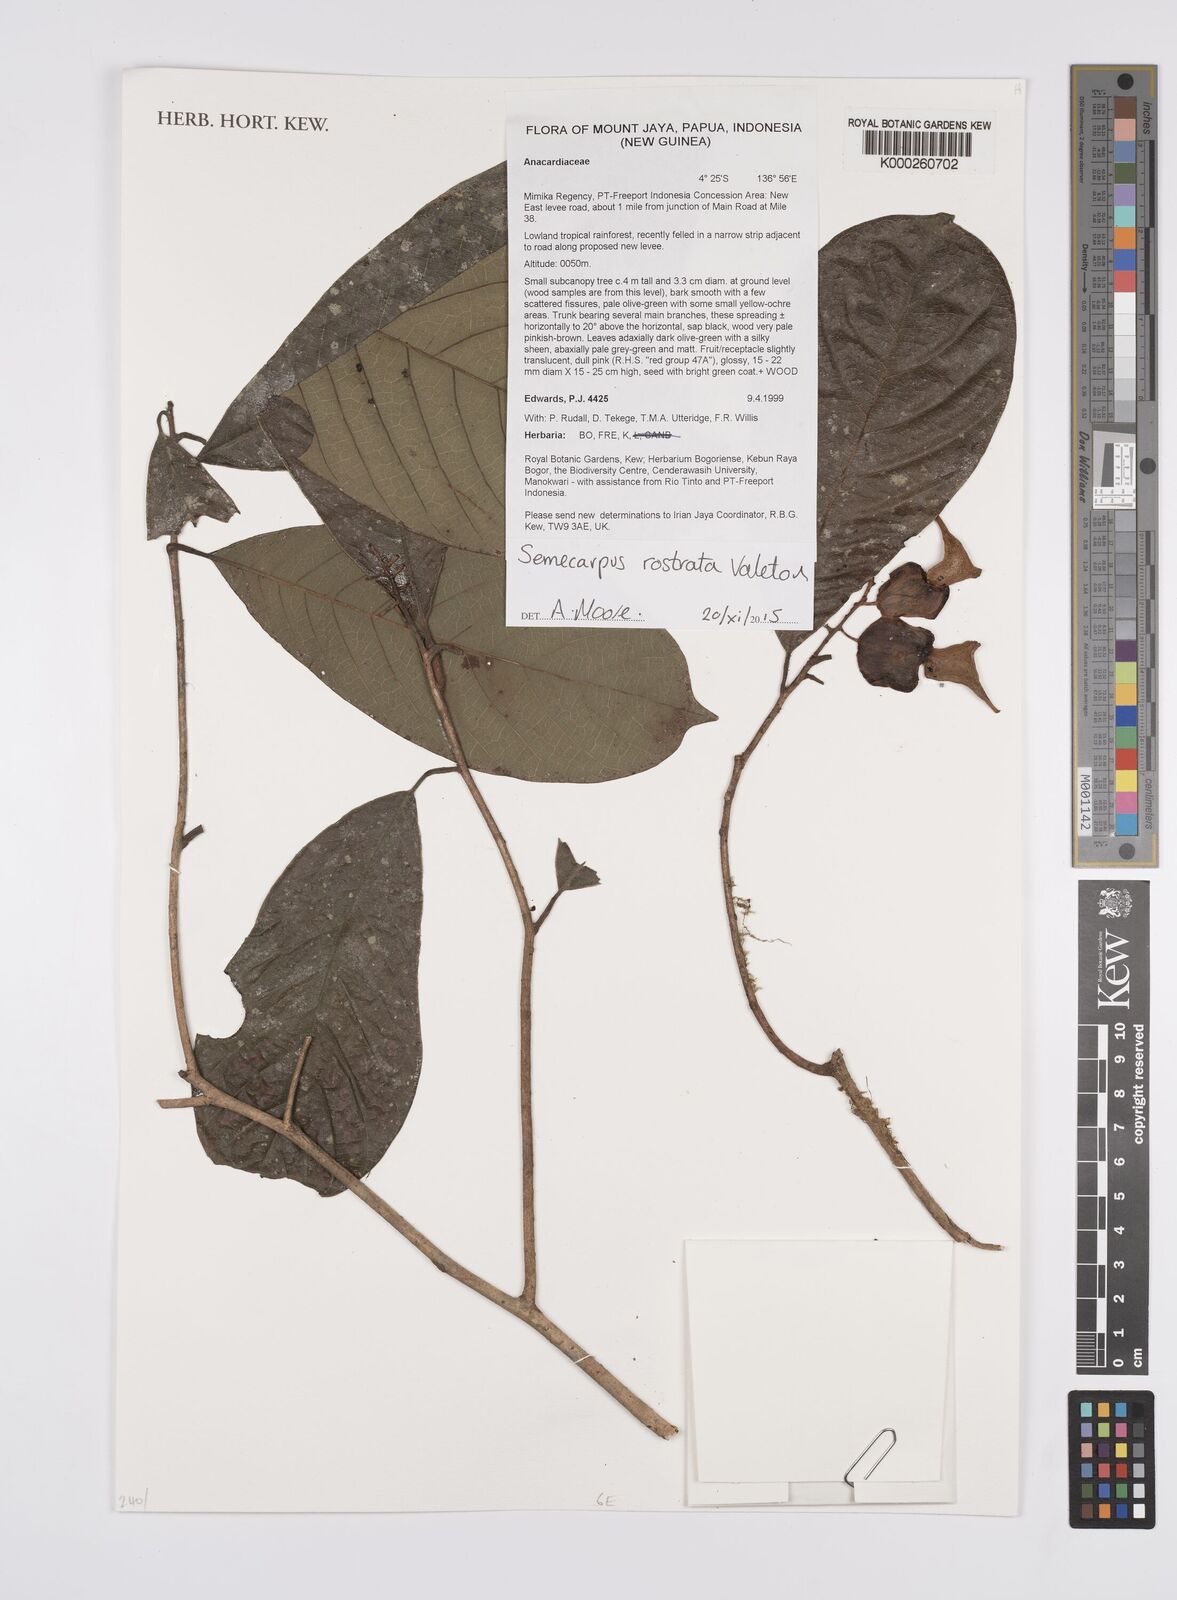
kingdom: Plantae
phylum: Tracheophyta
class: Magnoliopsida
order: Sapindales
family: Anacardiaceae
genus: Semecarpus
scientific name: Semecarpus rostratus
